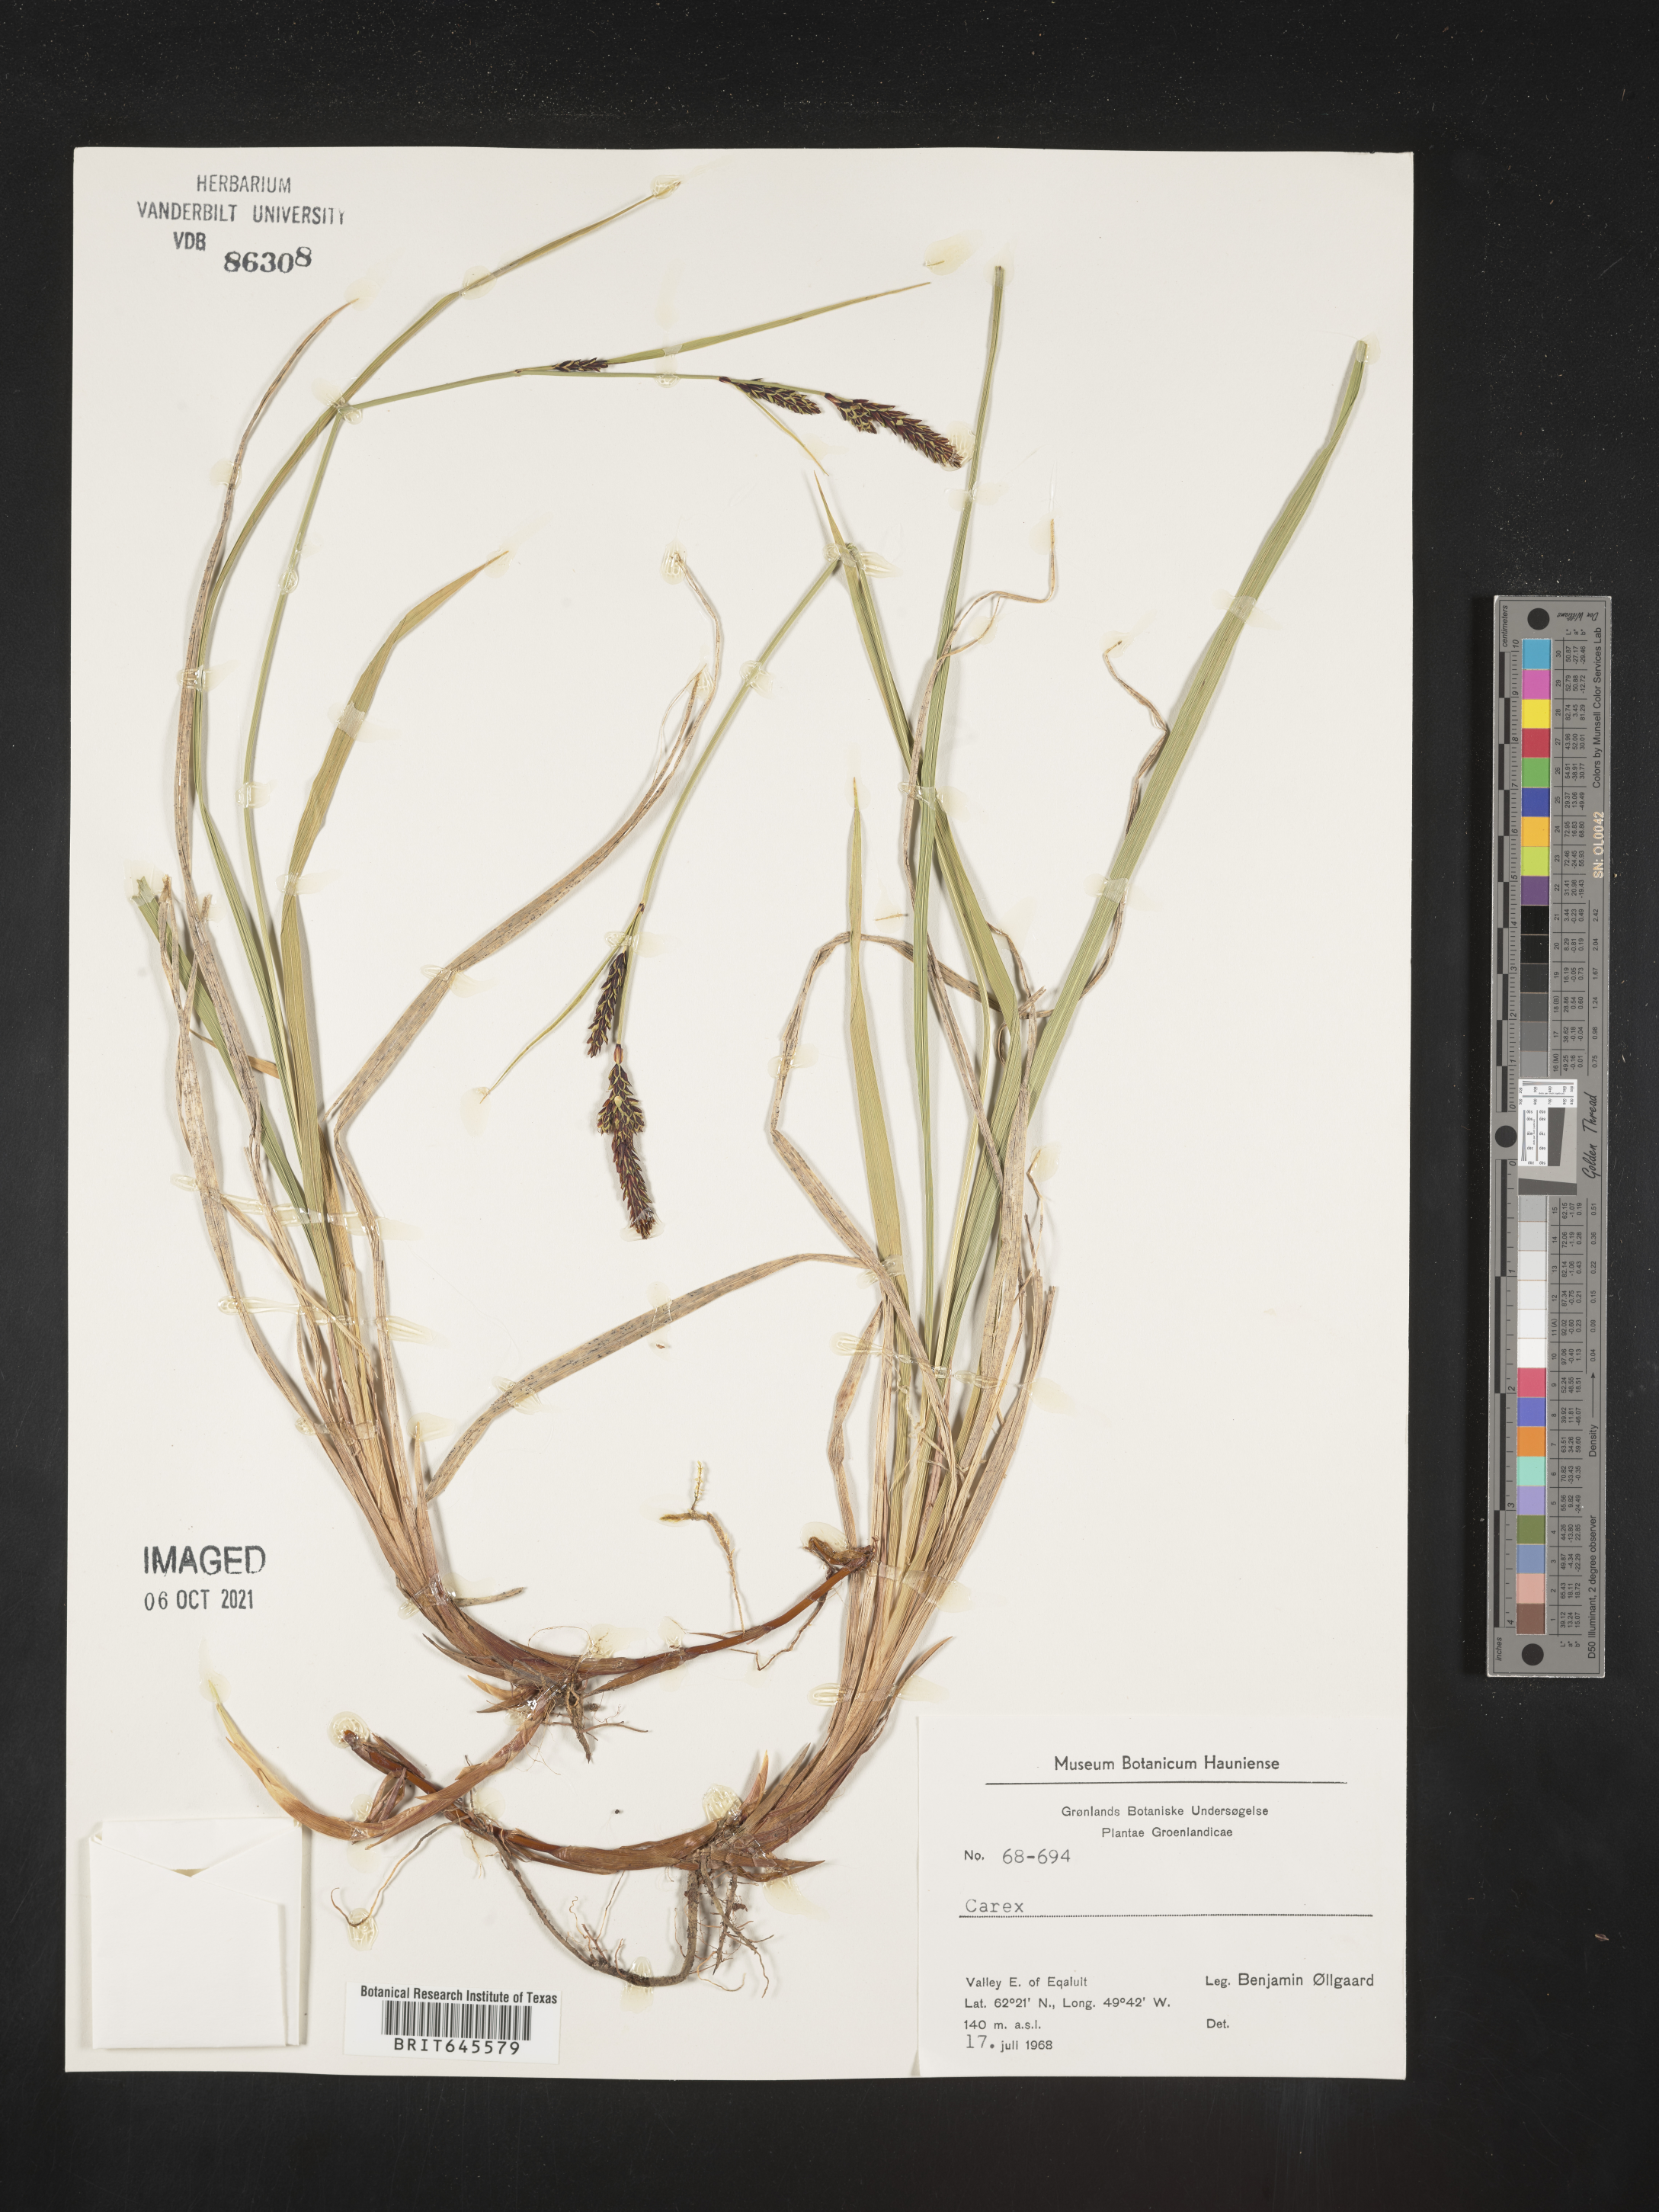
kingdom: Plantae
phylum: Tracheophyta
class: Liliopsida
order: Poales
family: Cyperaceae
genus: Carex
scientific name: Carex
